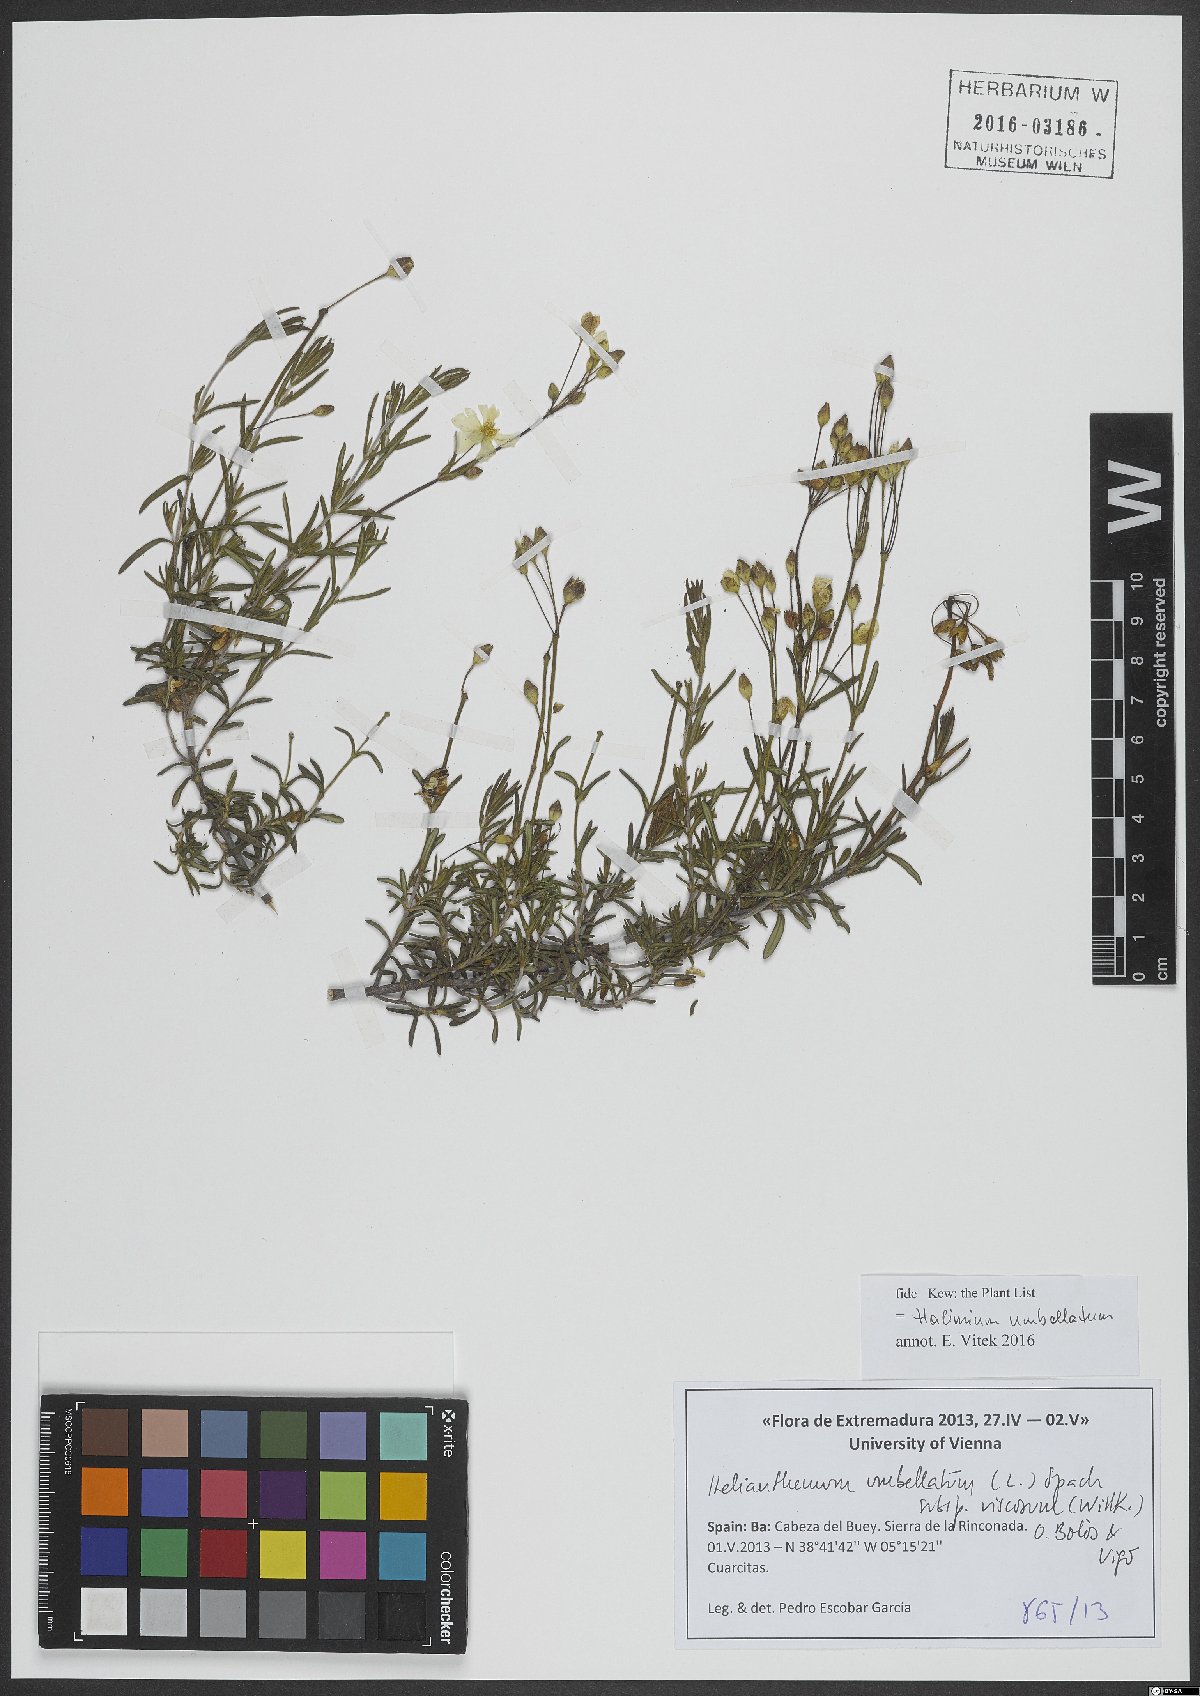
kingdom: Plantae
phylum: Tracheophyta
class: Magnoliopsida
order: Malvales
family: Cistaceae
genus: Halimium
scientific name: Halimium umbellatum
